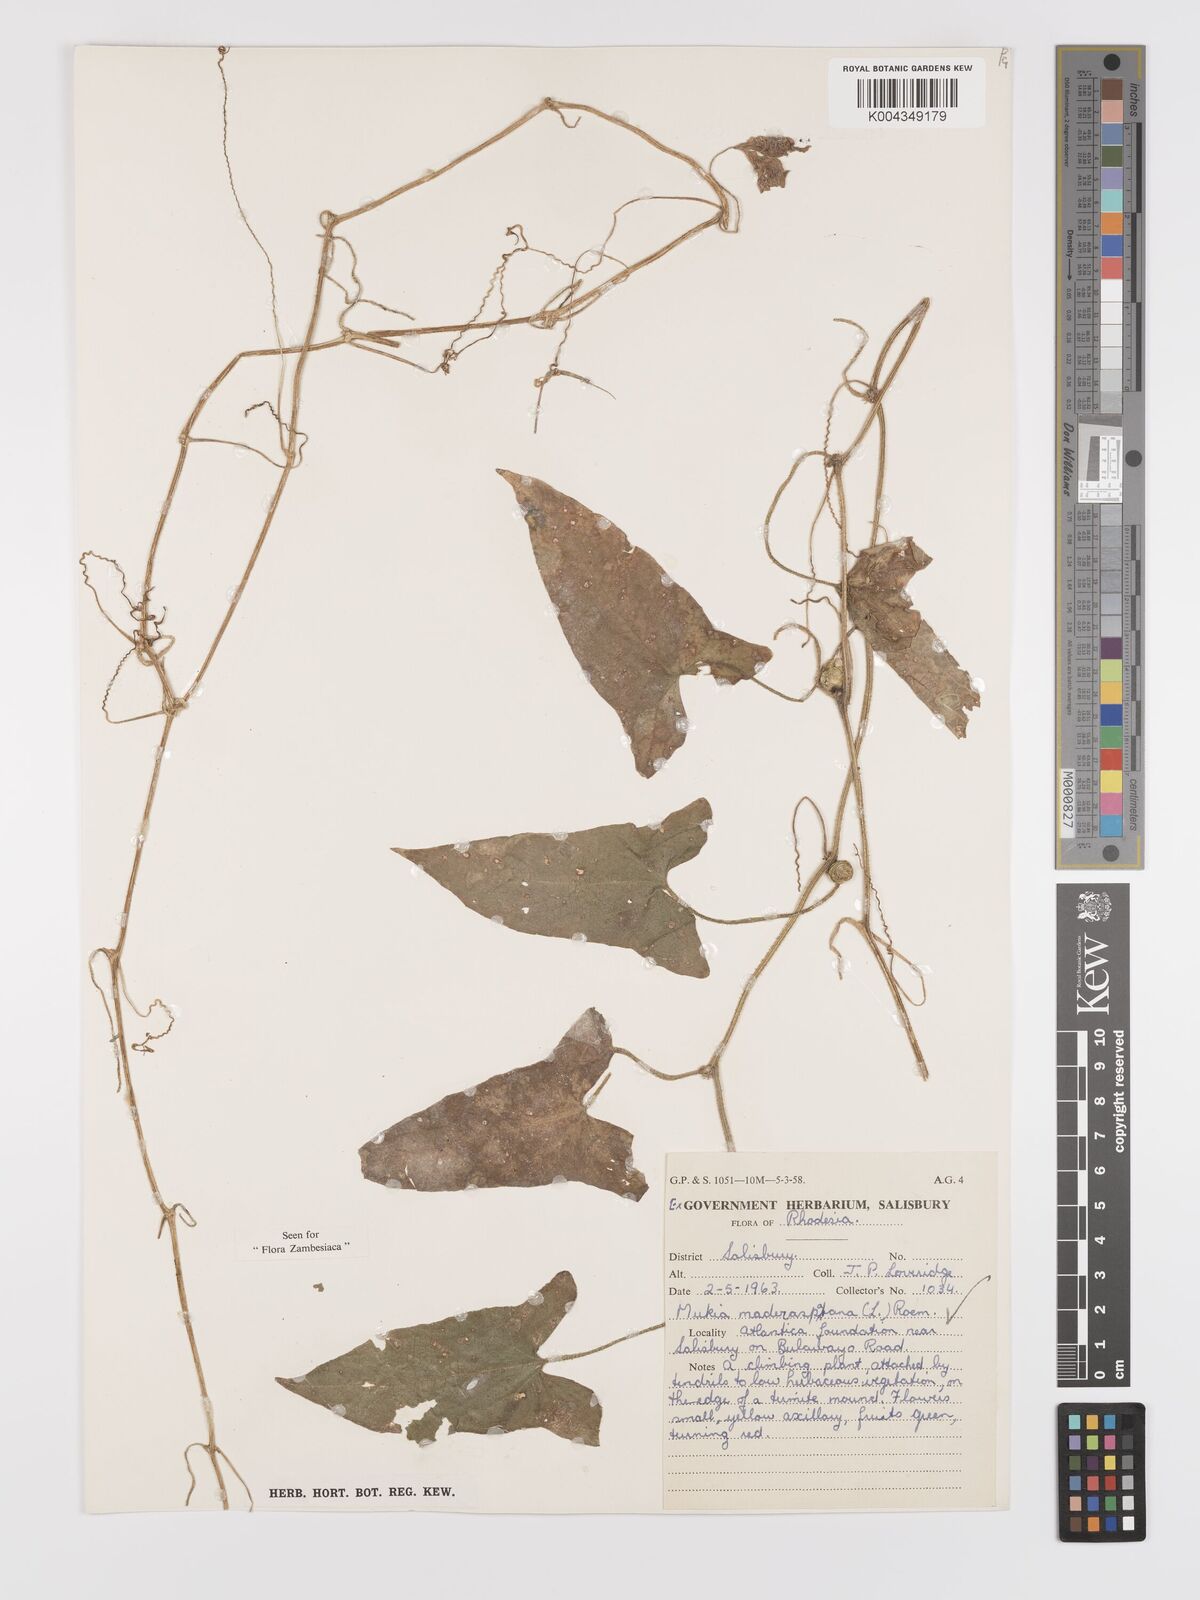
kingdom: Plantae
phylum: Tracheophyta
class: Magnoliopsida
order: Cucurbitales
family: Cucurbitaceae
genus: Cucumis
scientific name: Cucumis maderaspatanus
